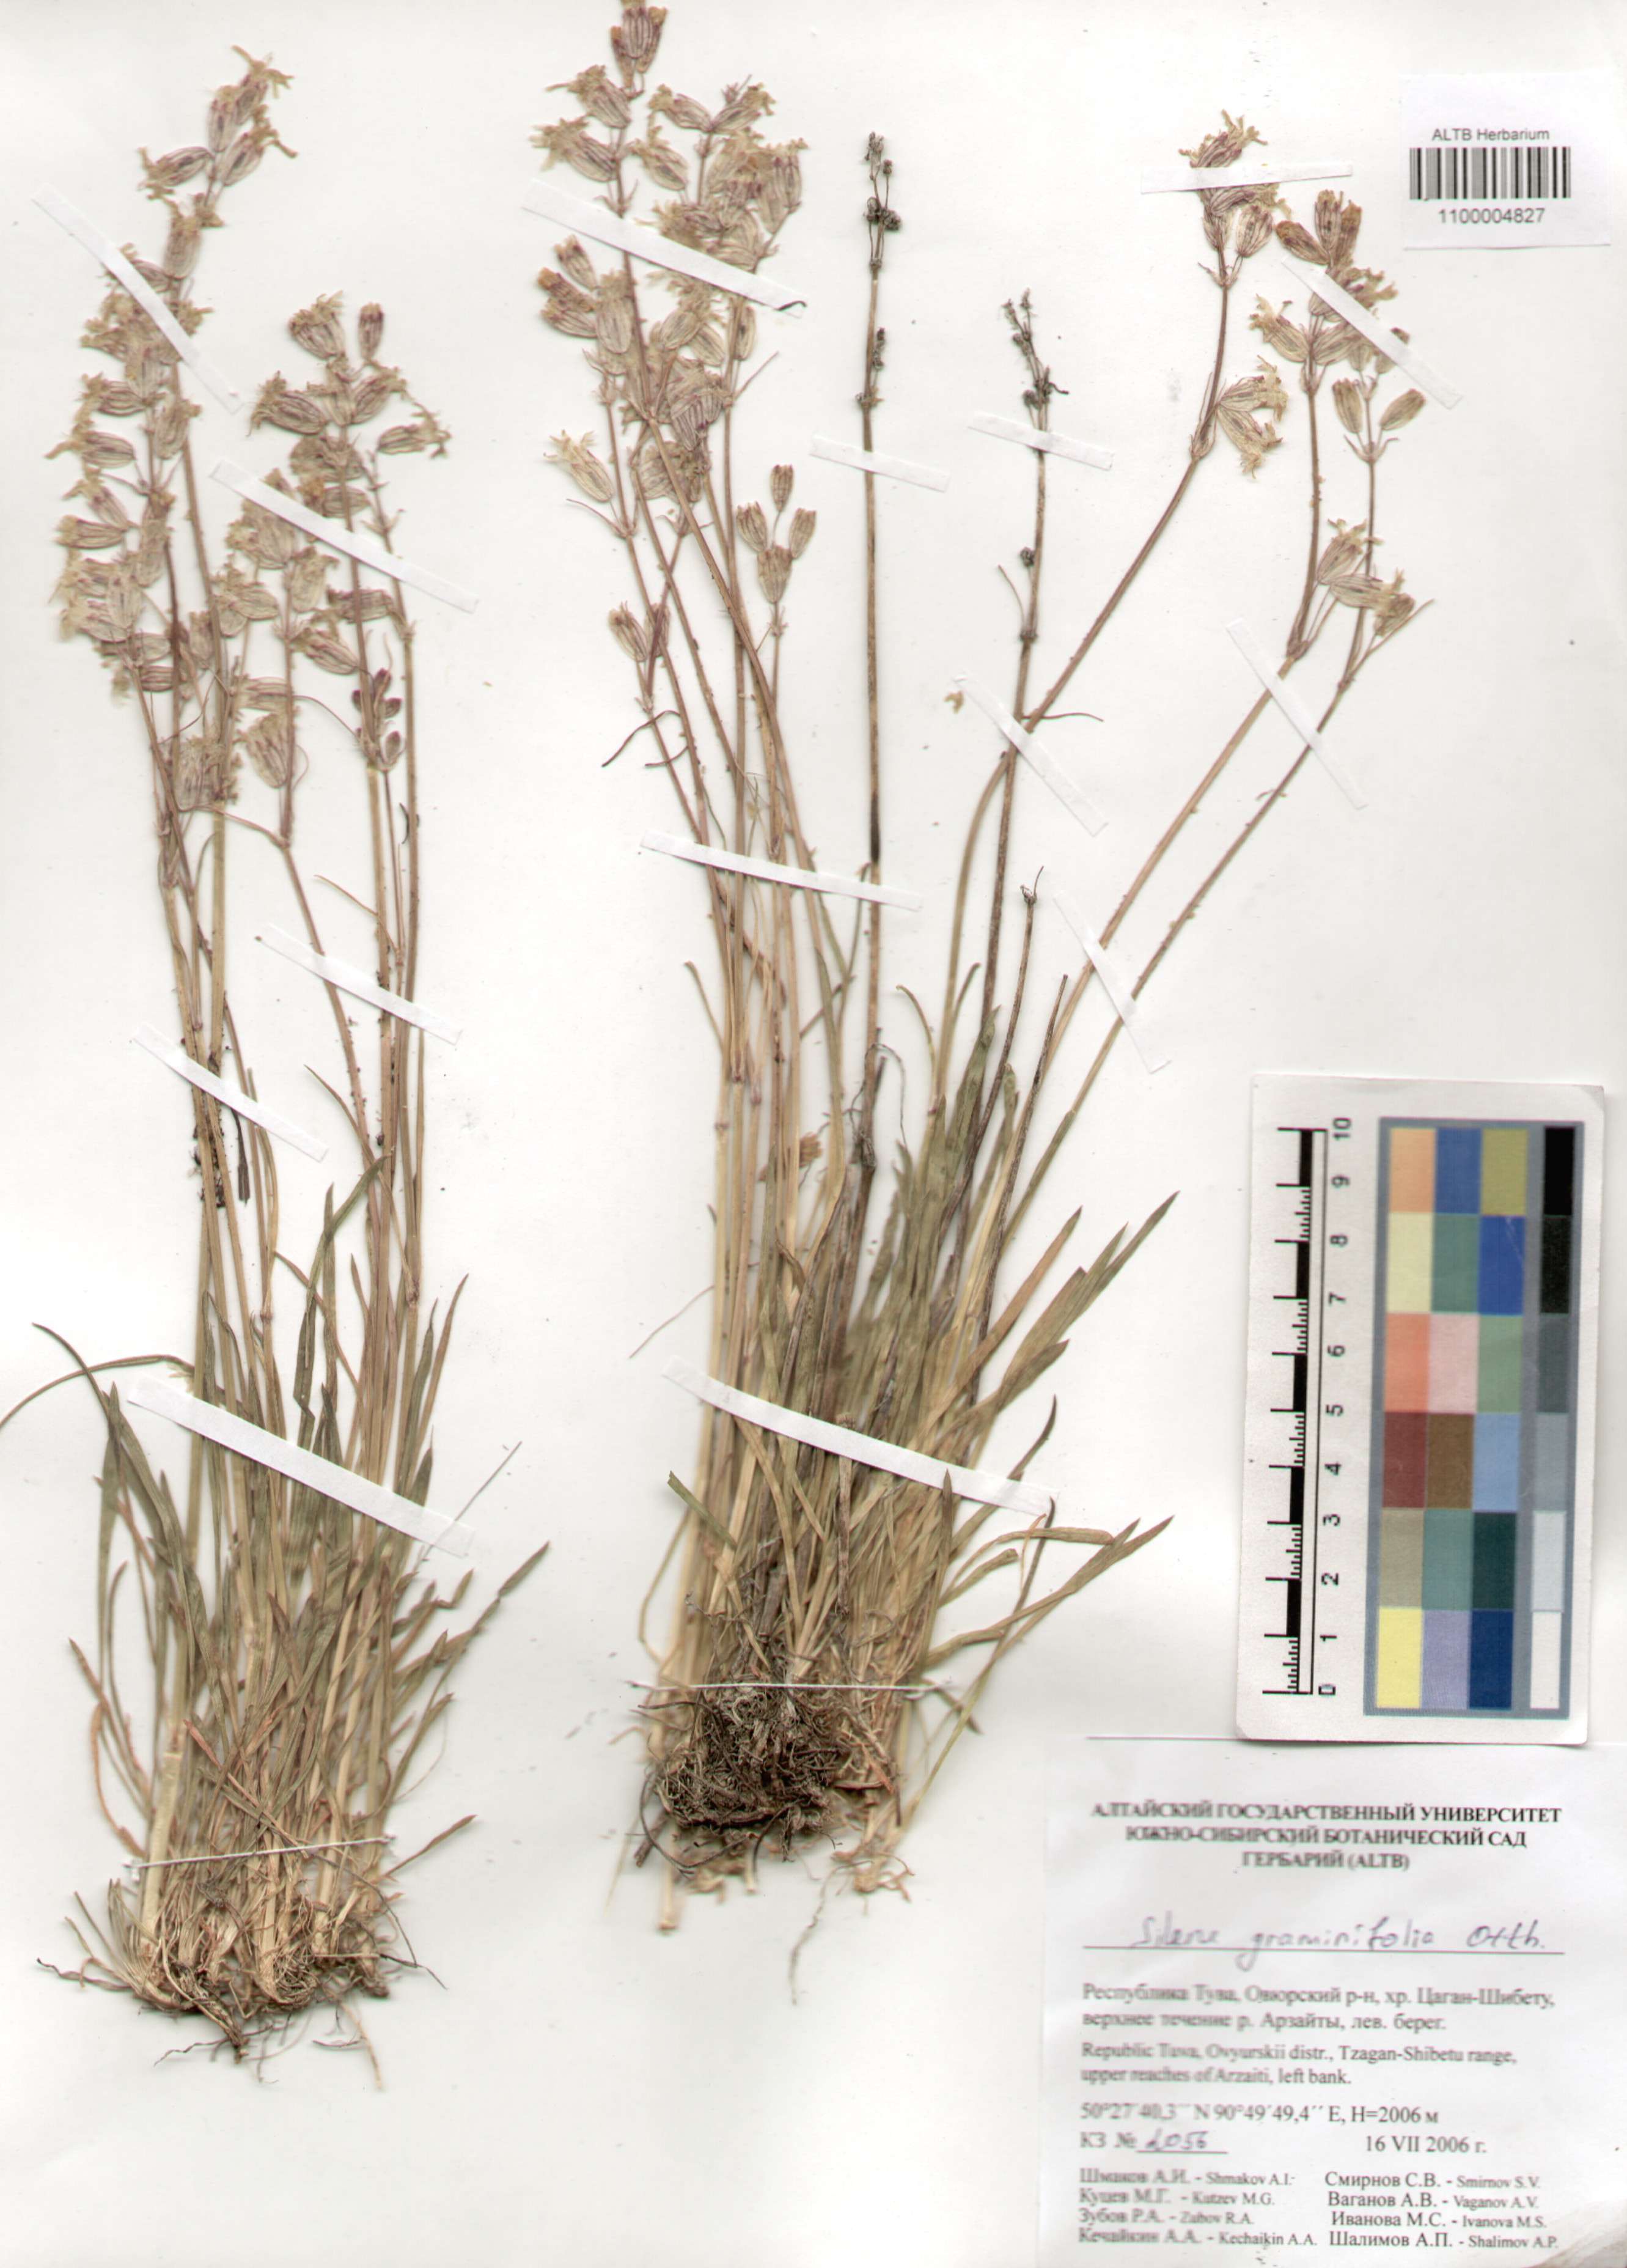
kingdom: Plantae
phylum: Tracheophyta
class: Magnoliopsida
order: Caryophyllales
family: Caryophyllaceae
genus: Silene
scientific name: Silene graminifolia
